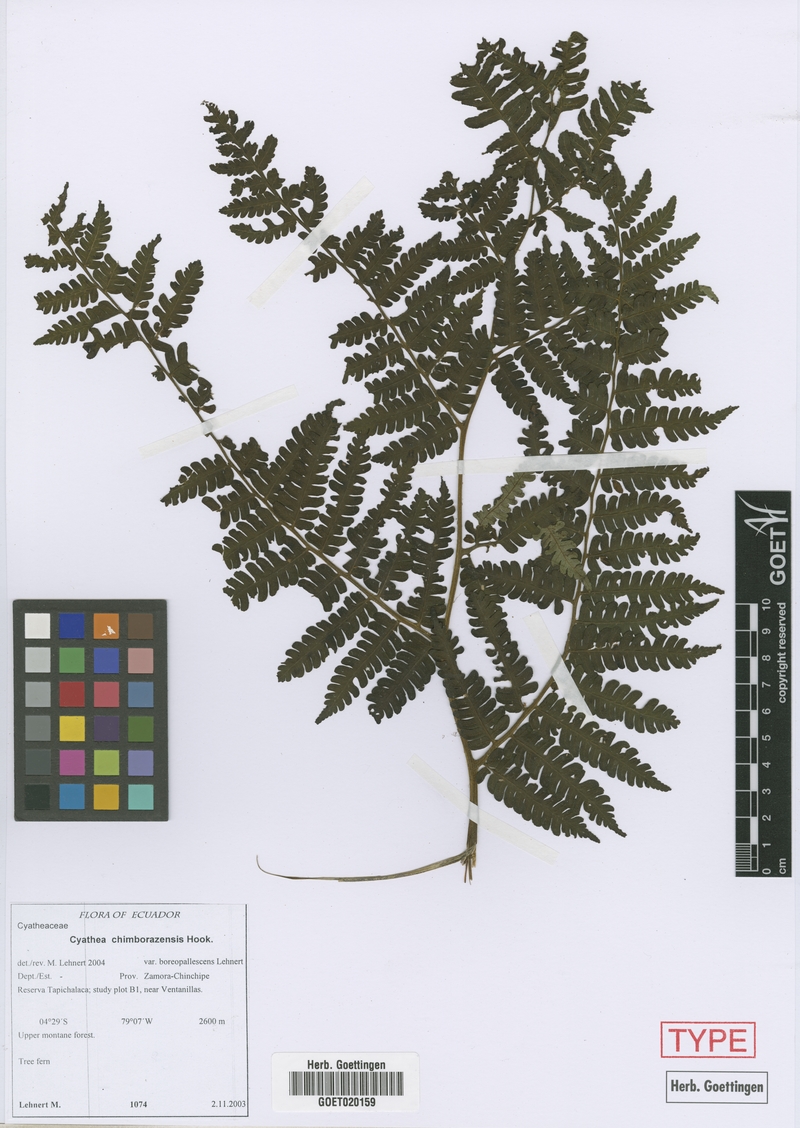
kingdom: Plantae
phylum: Tracheophyta
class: Polypodiopsida
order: Cyatheales
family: Cyatheaceae
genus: Cyathea
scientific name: Cyathea cystolepis
